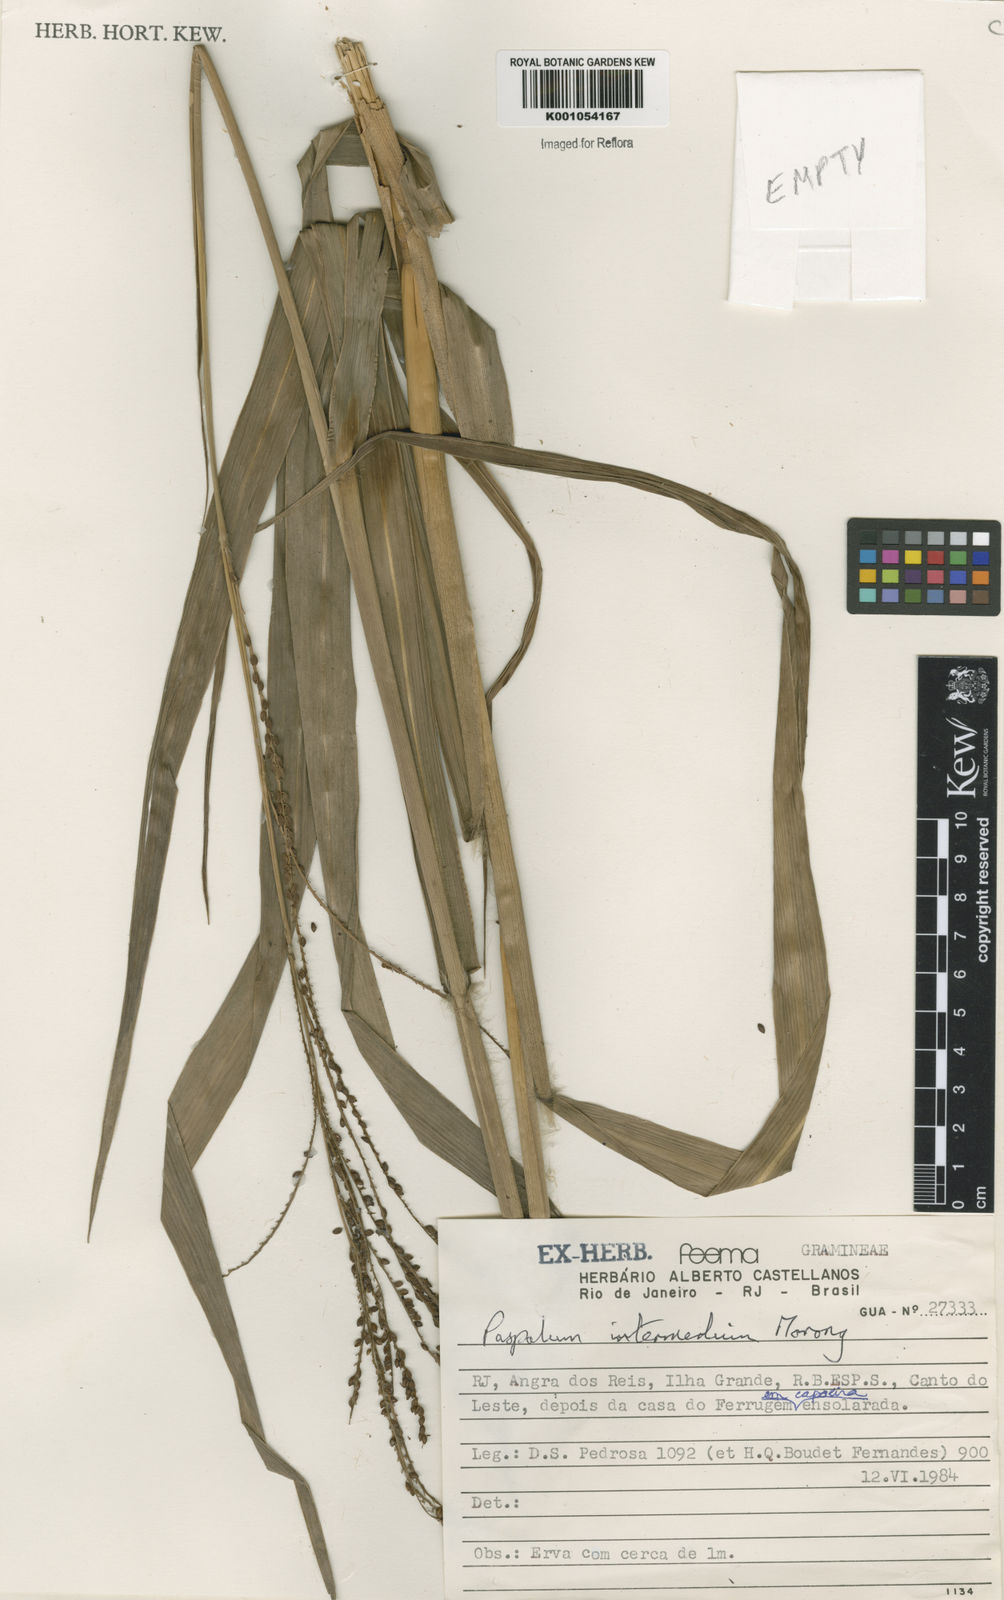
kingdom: Plantae
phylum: Tracheophyta
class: Liliopsida
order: Poales
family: Poaceae
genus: Paspalum
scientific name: Paspalum conspersum
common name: Scattered paspalum
